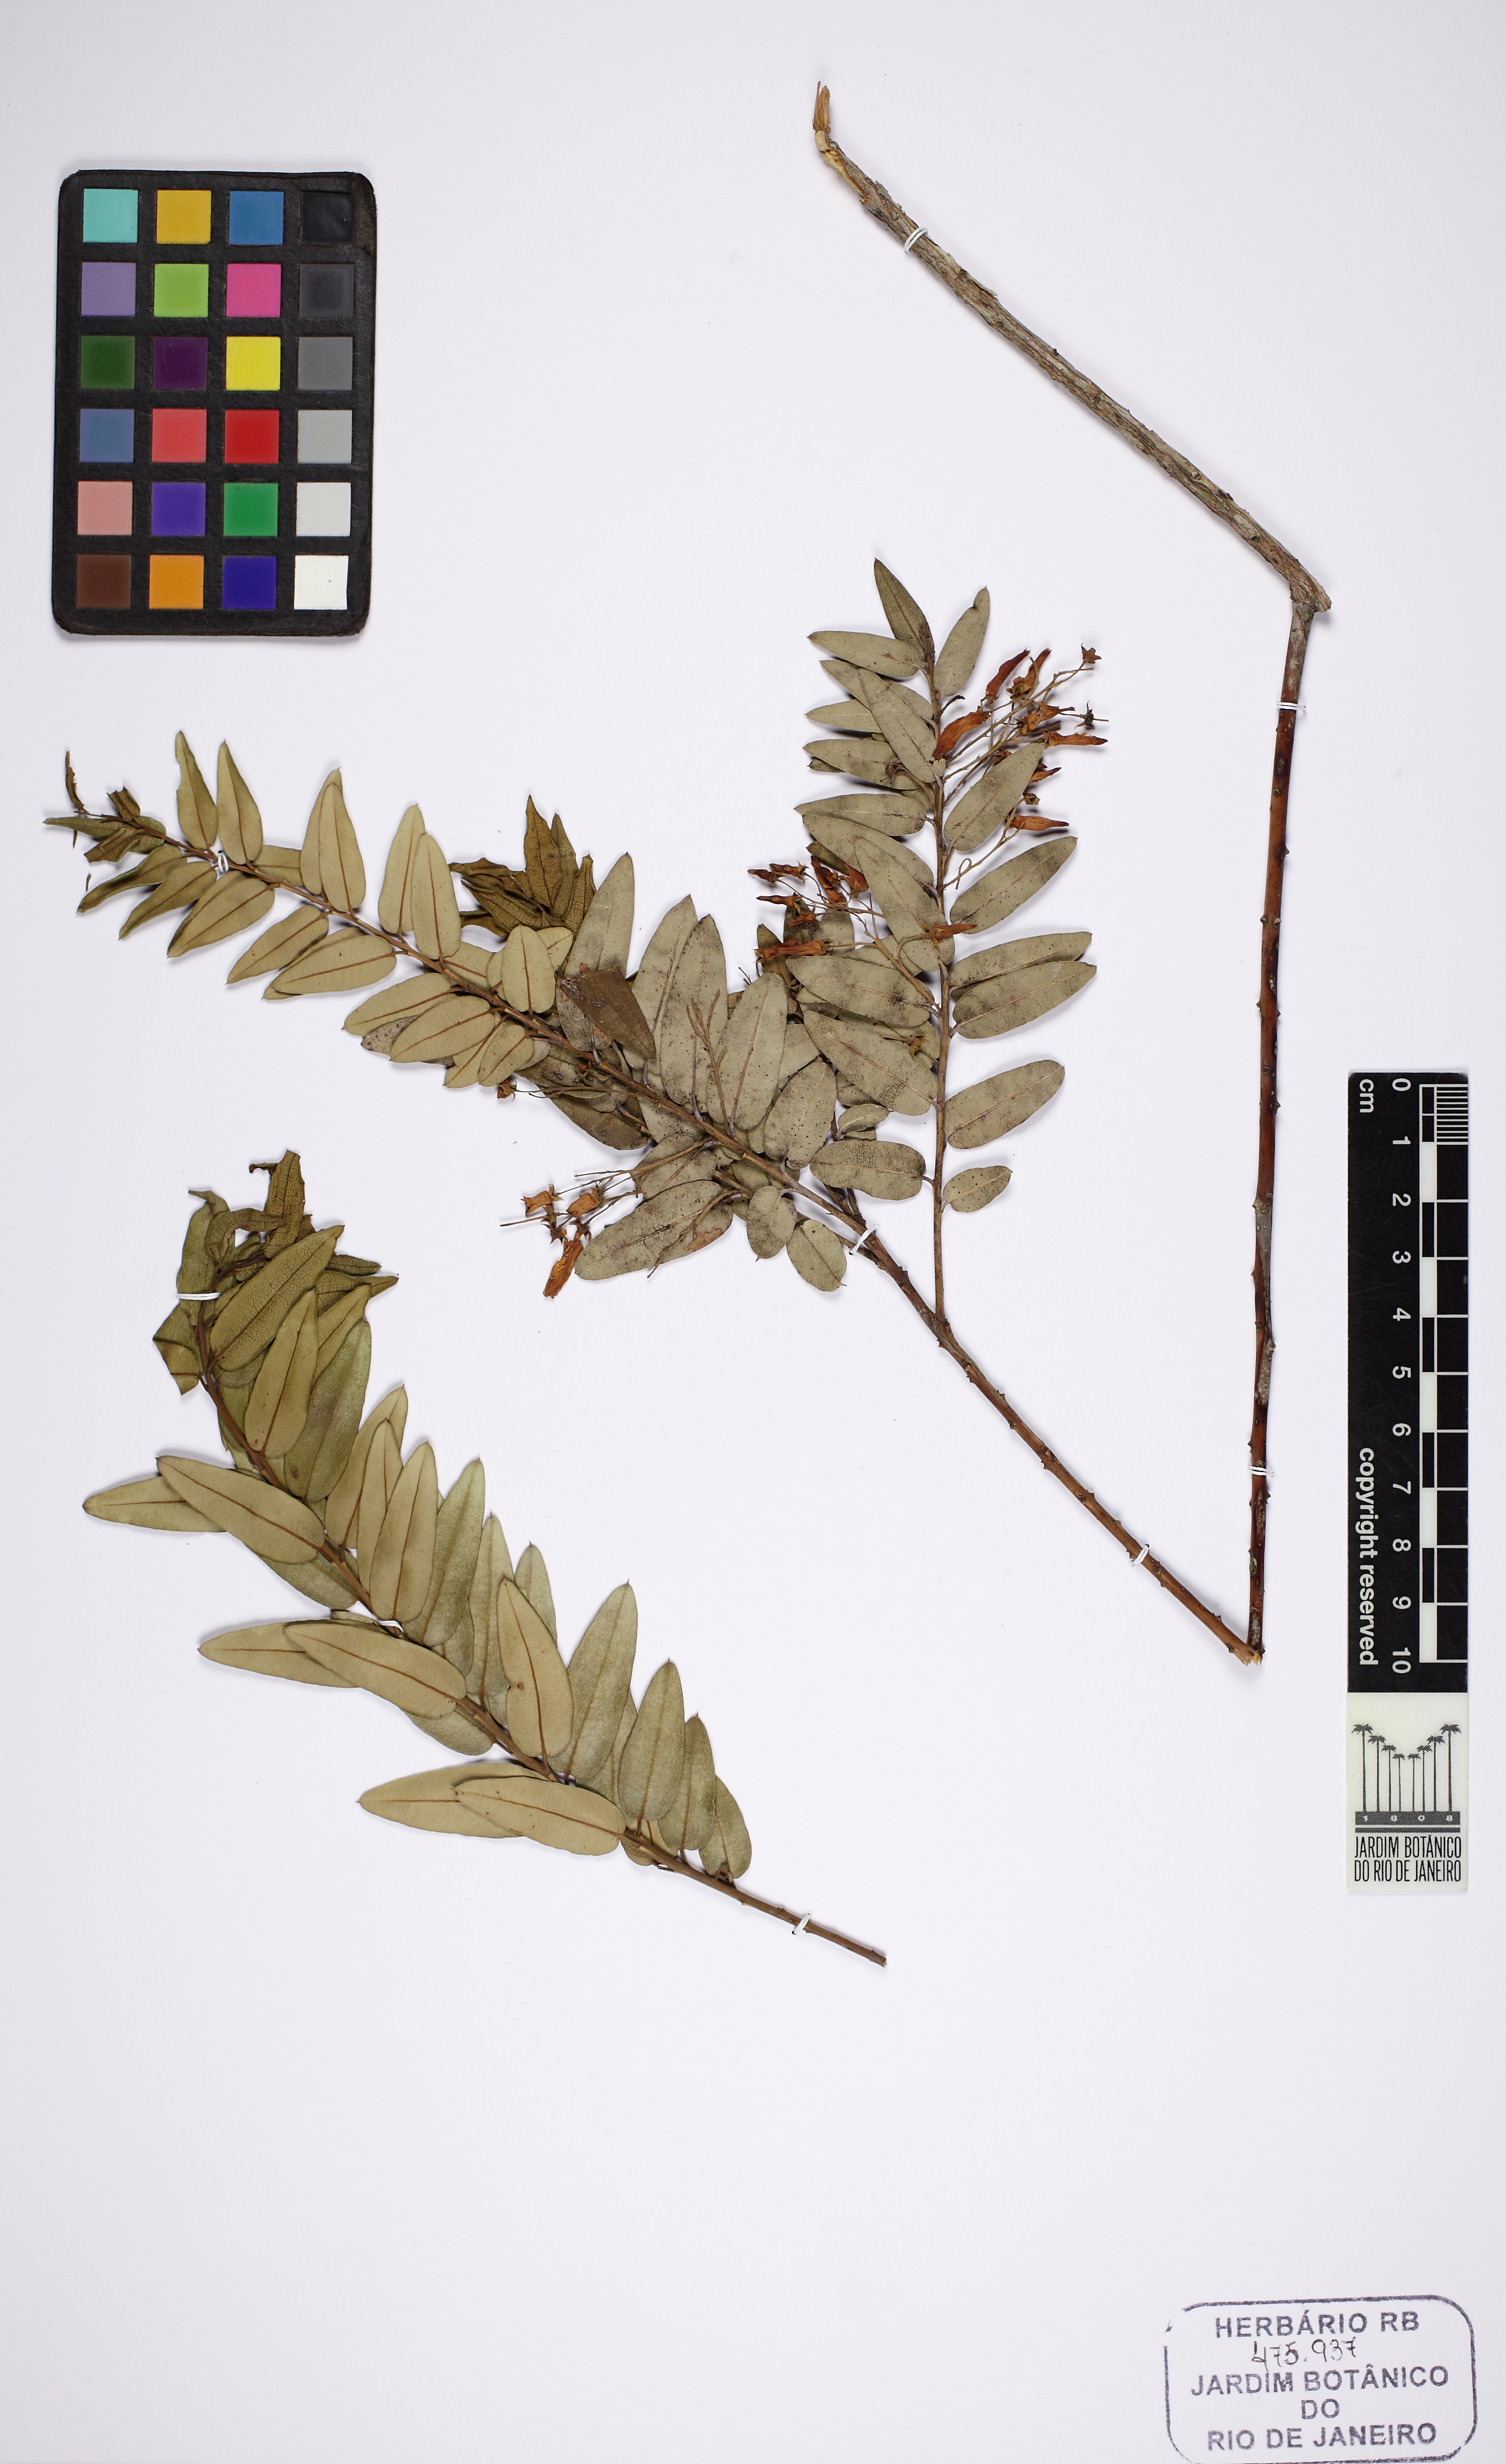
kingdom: Plantae
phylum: Tracheophyta
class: Magnoliopsida
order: Ericales
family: Ericaceae
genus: Agarista
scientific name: Agarista niederleinii
